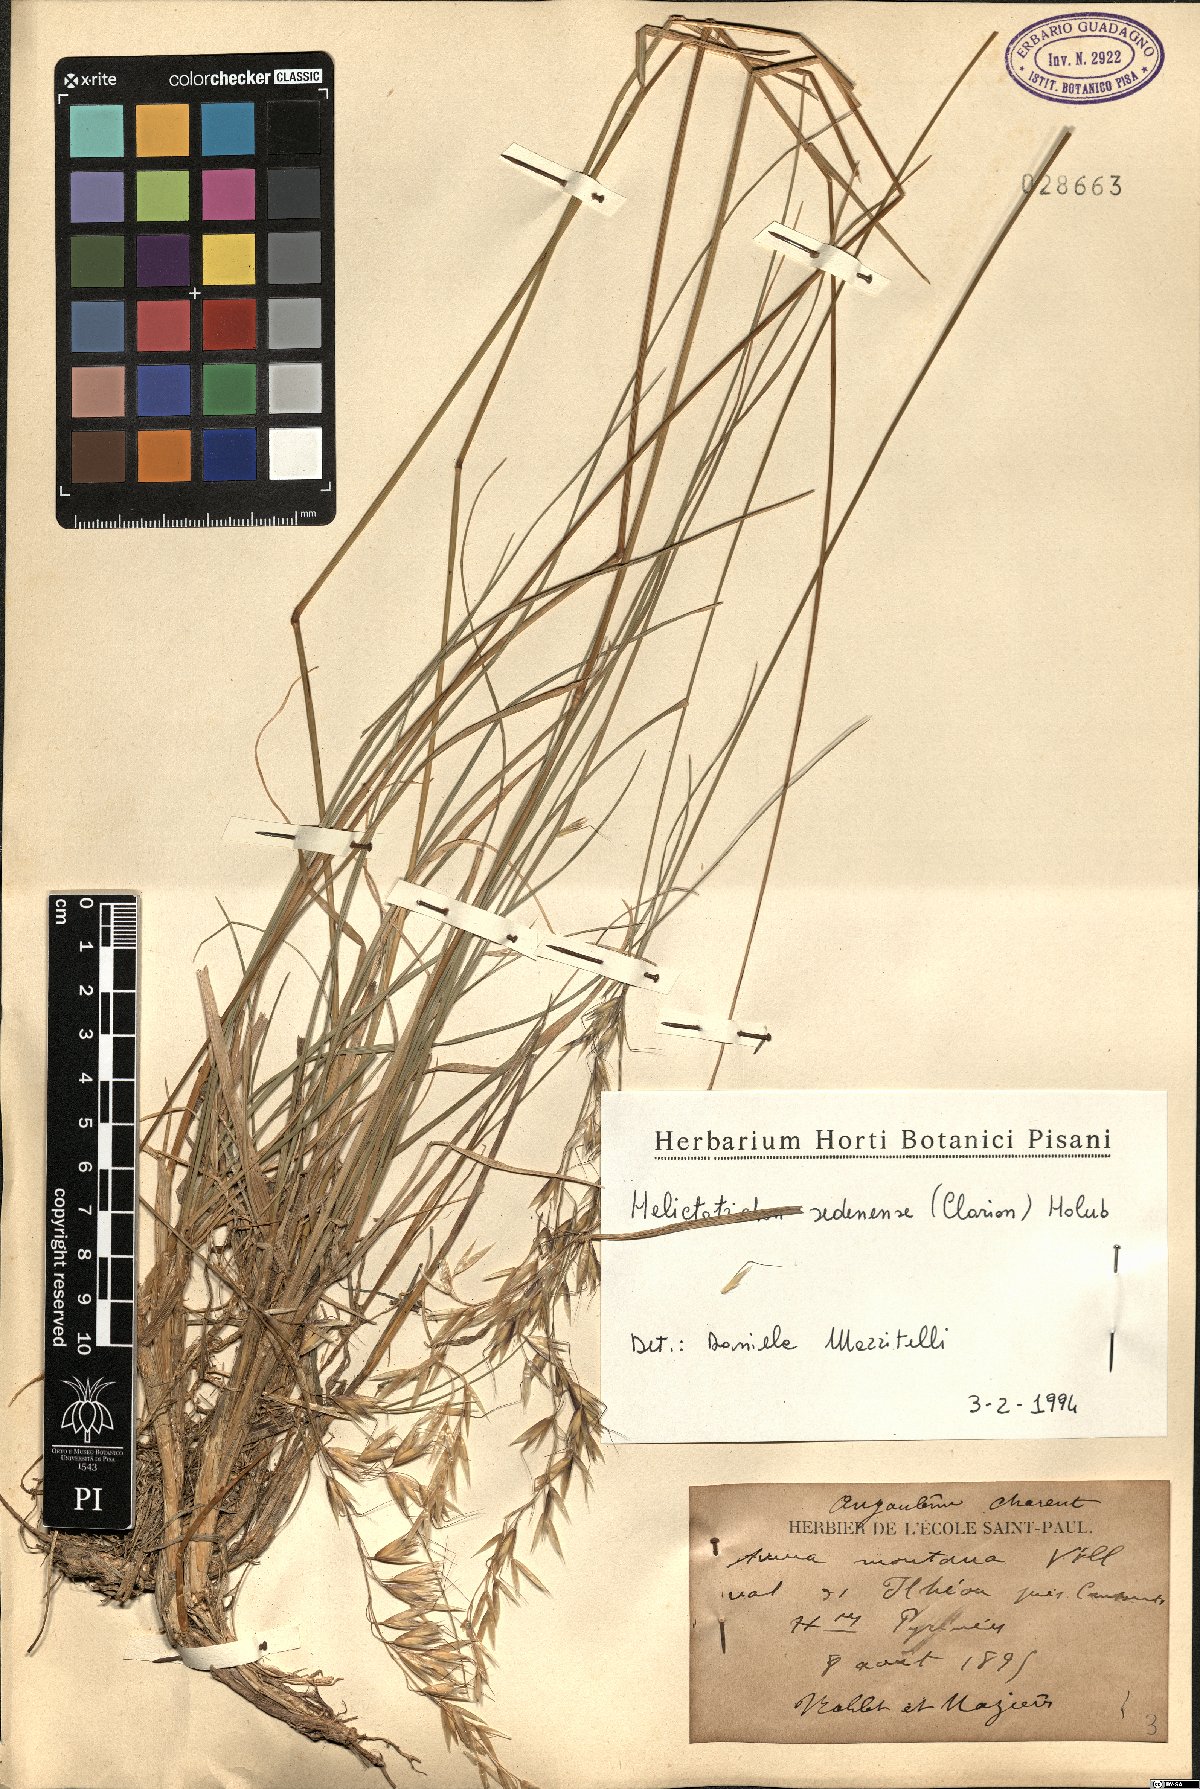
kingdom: Plantae
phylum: Tracheophyta
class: Liliopsida
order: Poales
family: Poaceae
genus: Helictotrichon
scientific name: Helictotrichon sedenense
